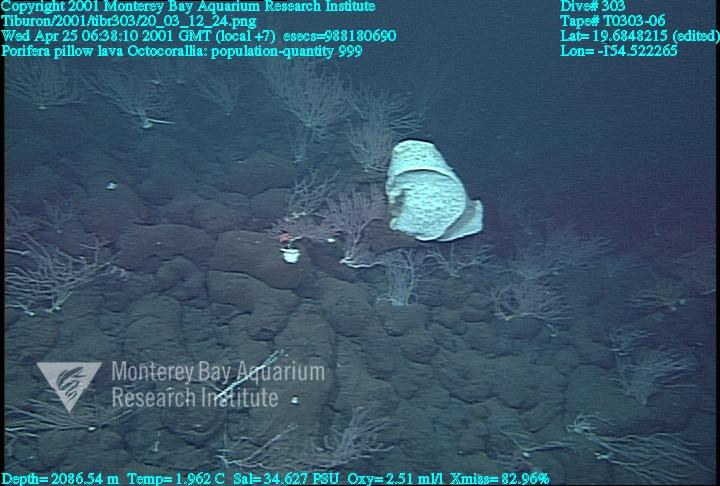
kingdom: Animalia
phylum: Porifera
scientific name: Porifera
